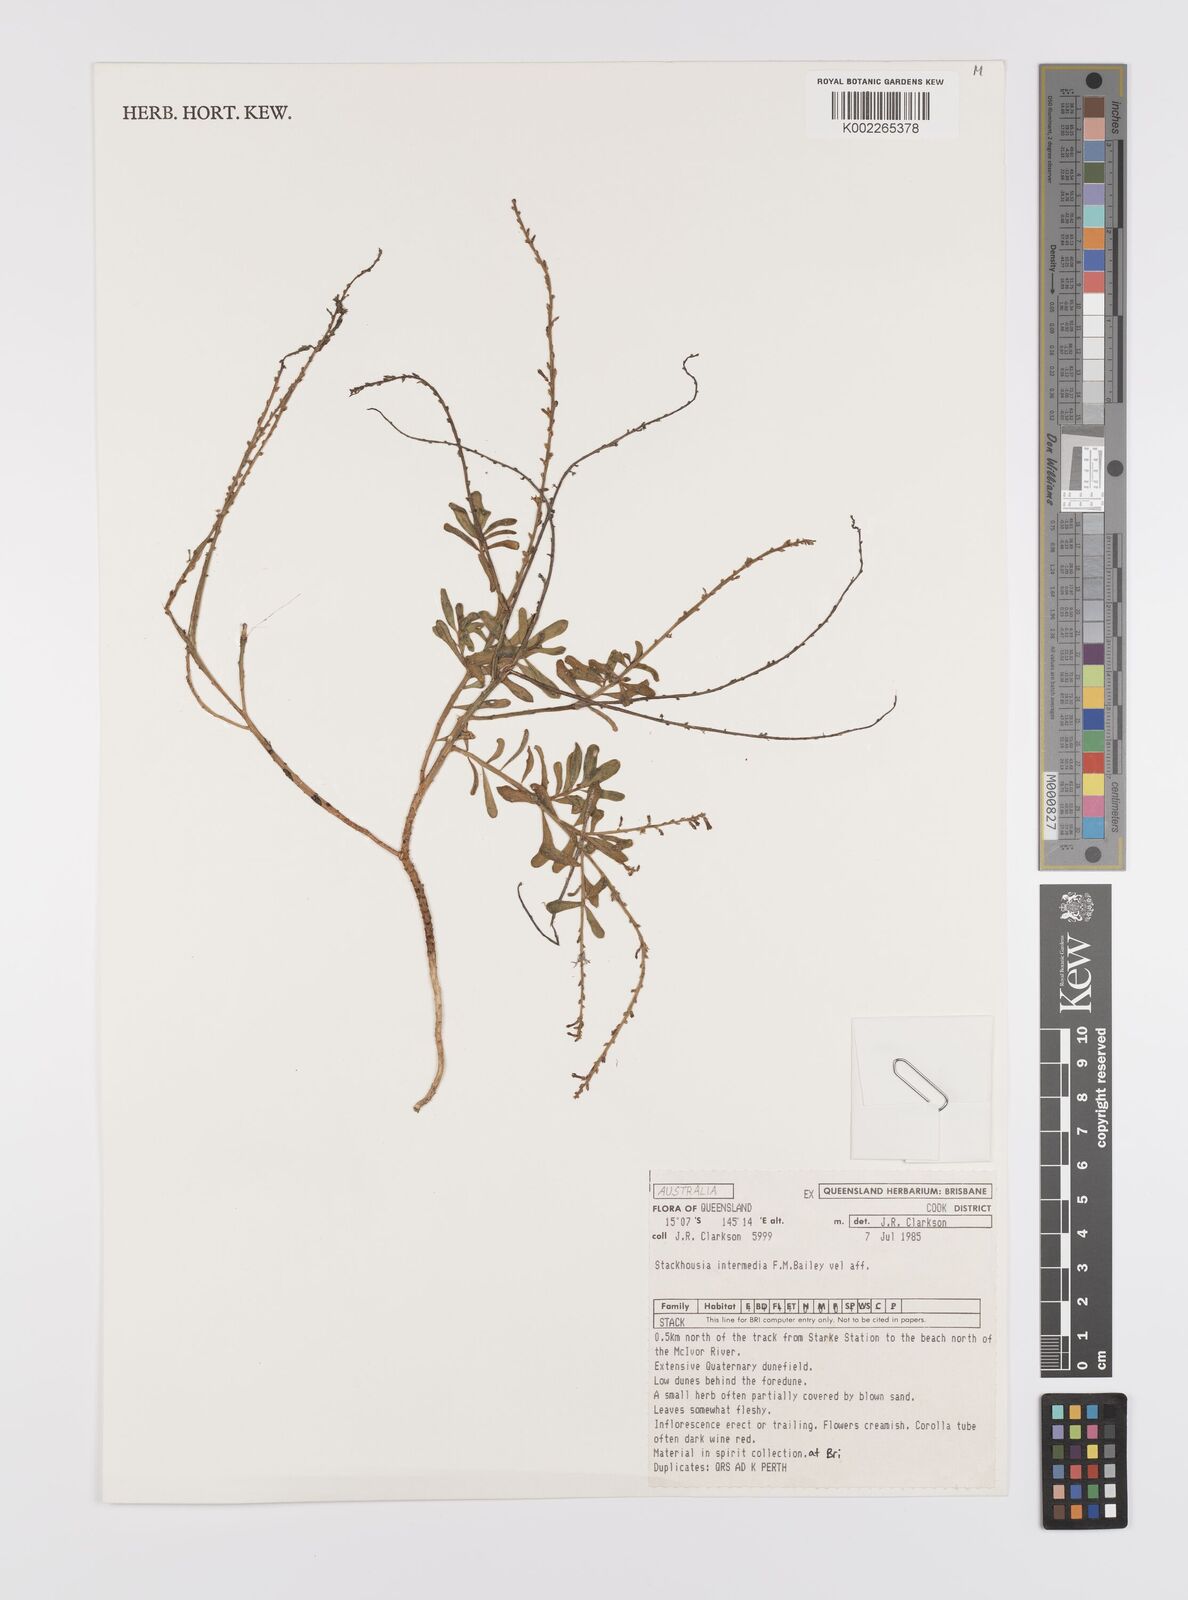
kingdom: Plantae
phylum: Tracheophyta
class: Magnoliopsida
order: Celastrales
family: Celastraceae
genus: Stackhousia
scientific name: Stackhousia intermedia
